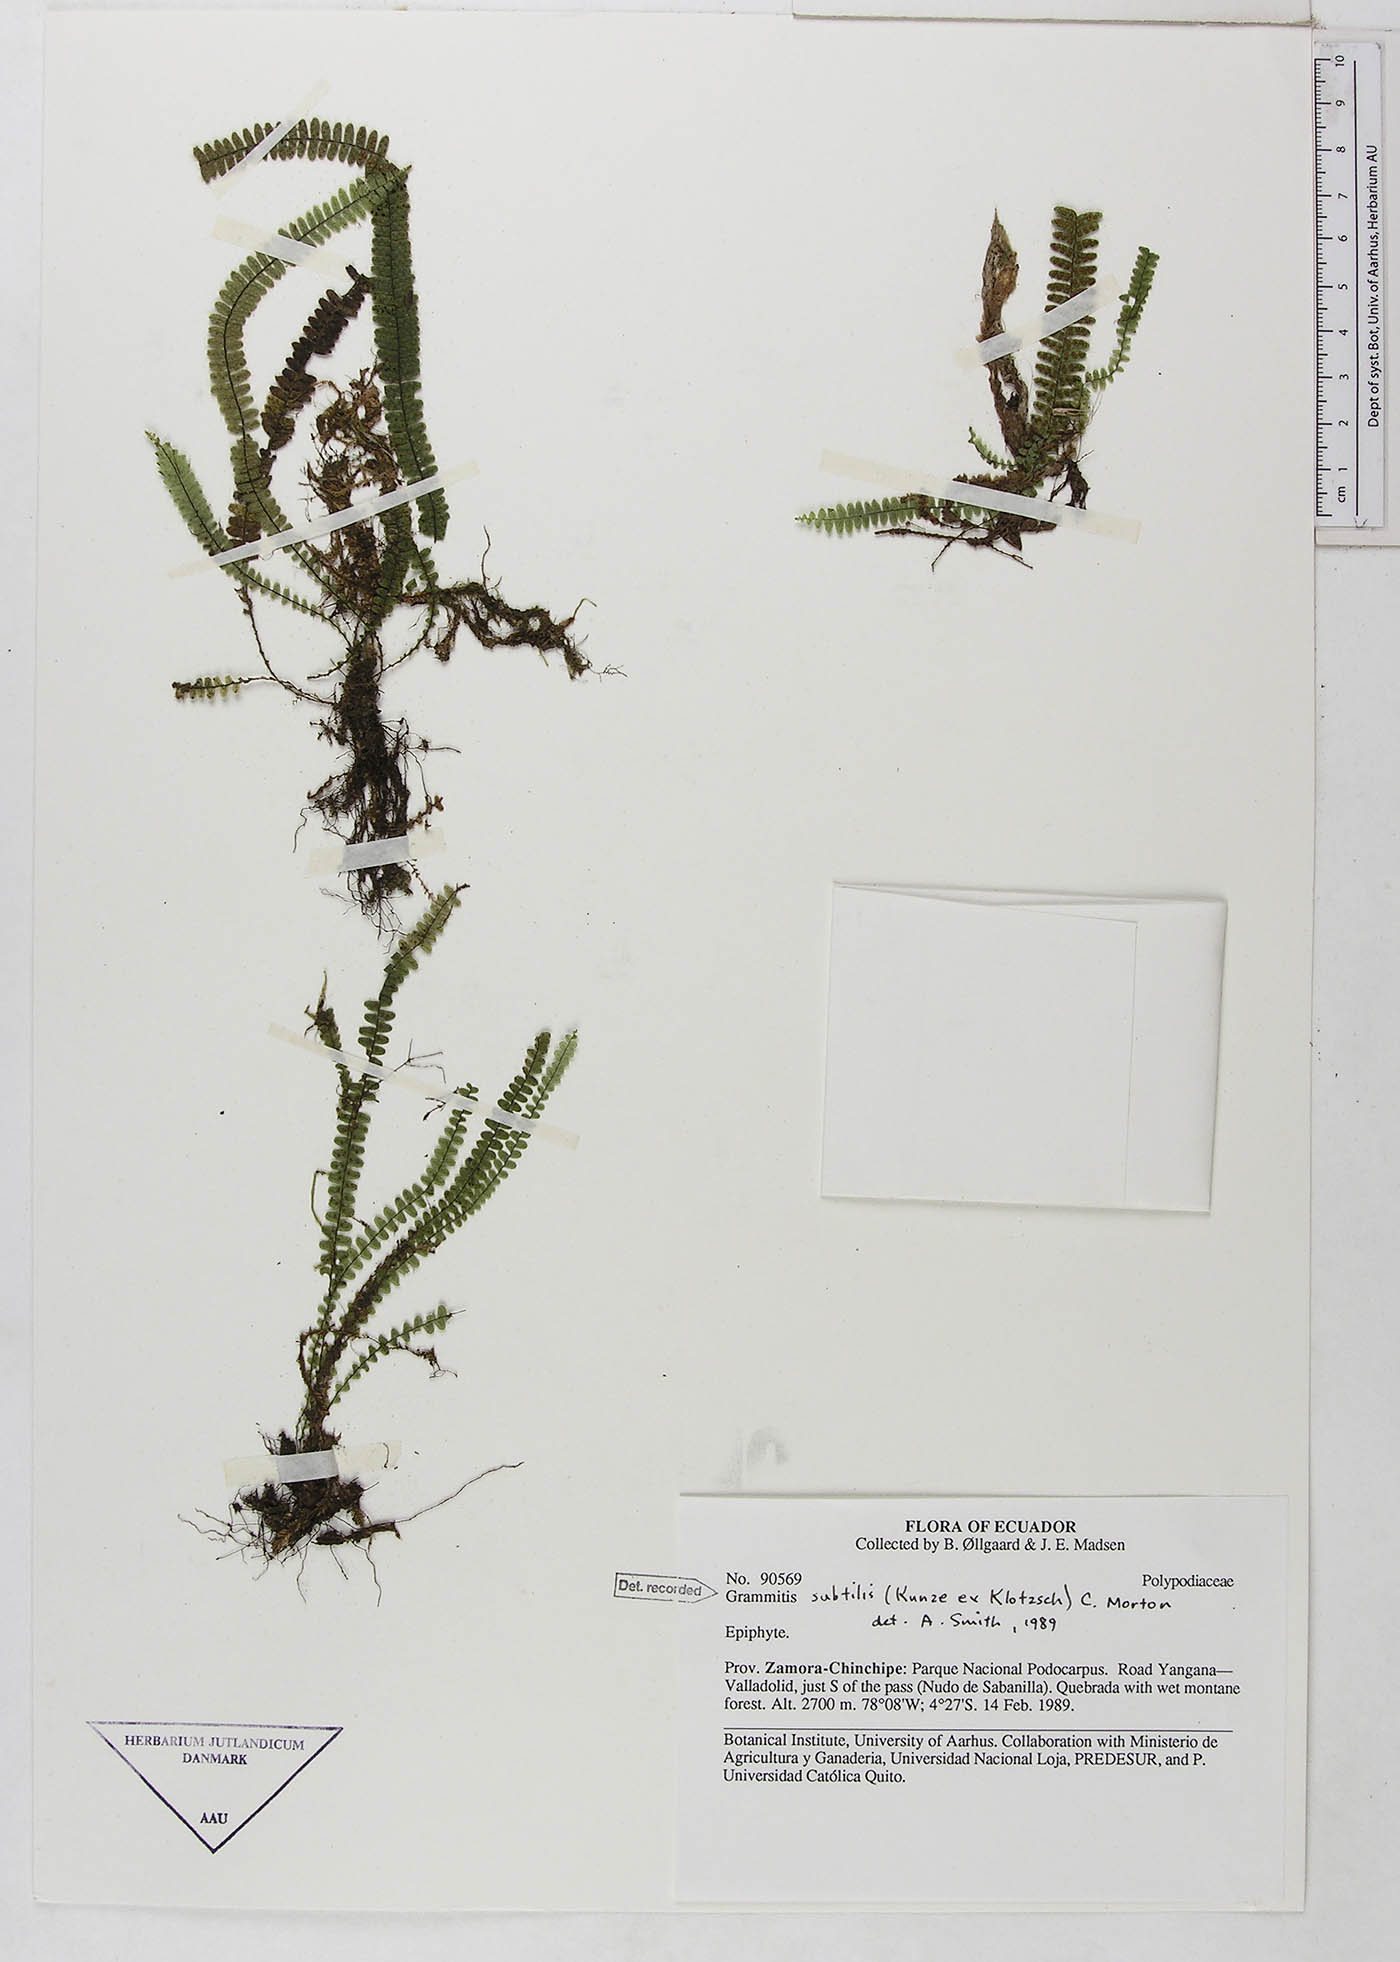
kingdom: Plantae
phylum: Tracheophyta
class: Polypodiopsida
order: Polypodiales
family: Polypodiaceae
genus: Mycopteris
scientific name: Mycopteris subtilis
